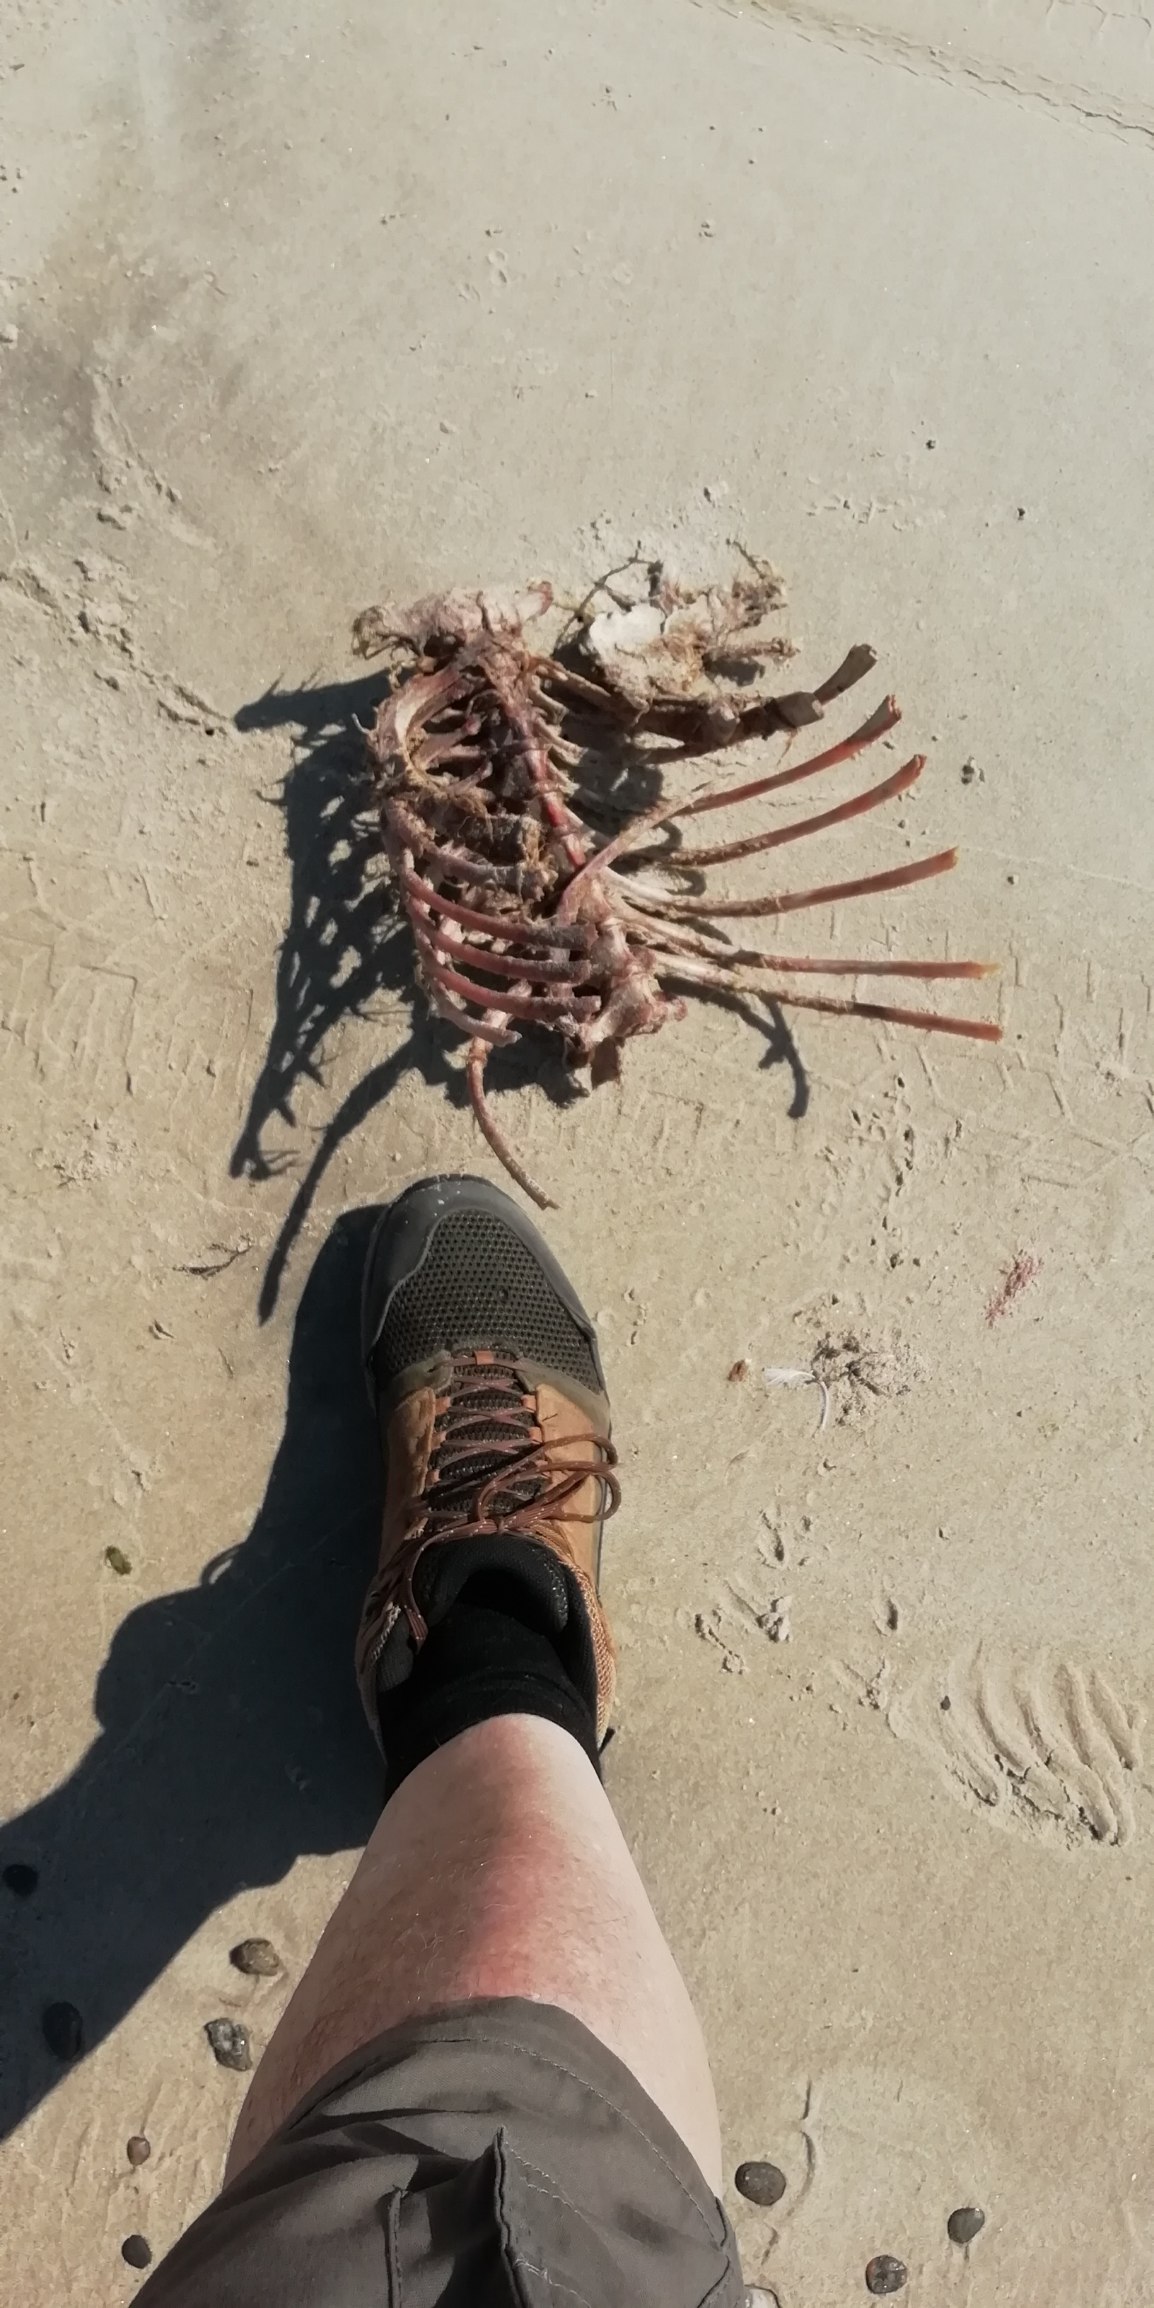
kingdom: Animalia
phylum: Chordata
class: Mammalia
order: Cetacea
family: Phocoenidae
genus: Phocoena
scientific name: Phocoena phocoena
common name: Marsvin
